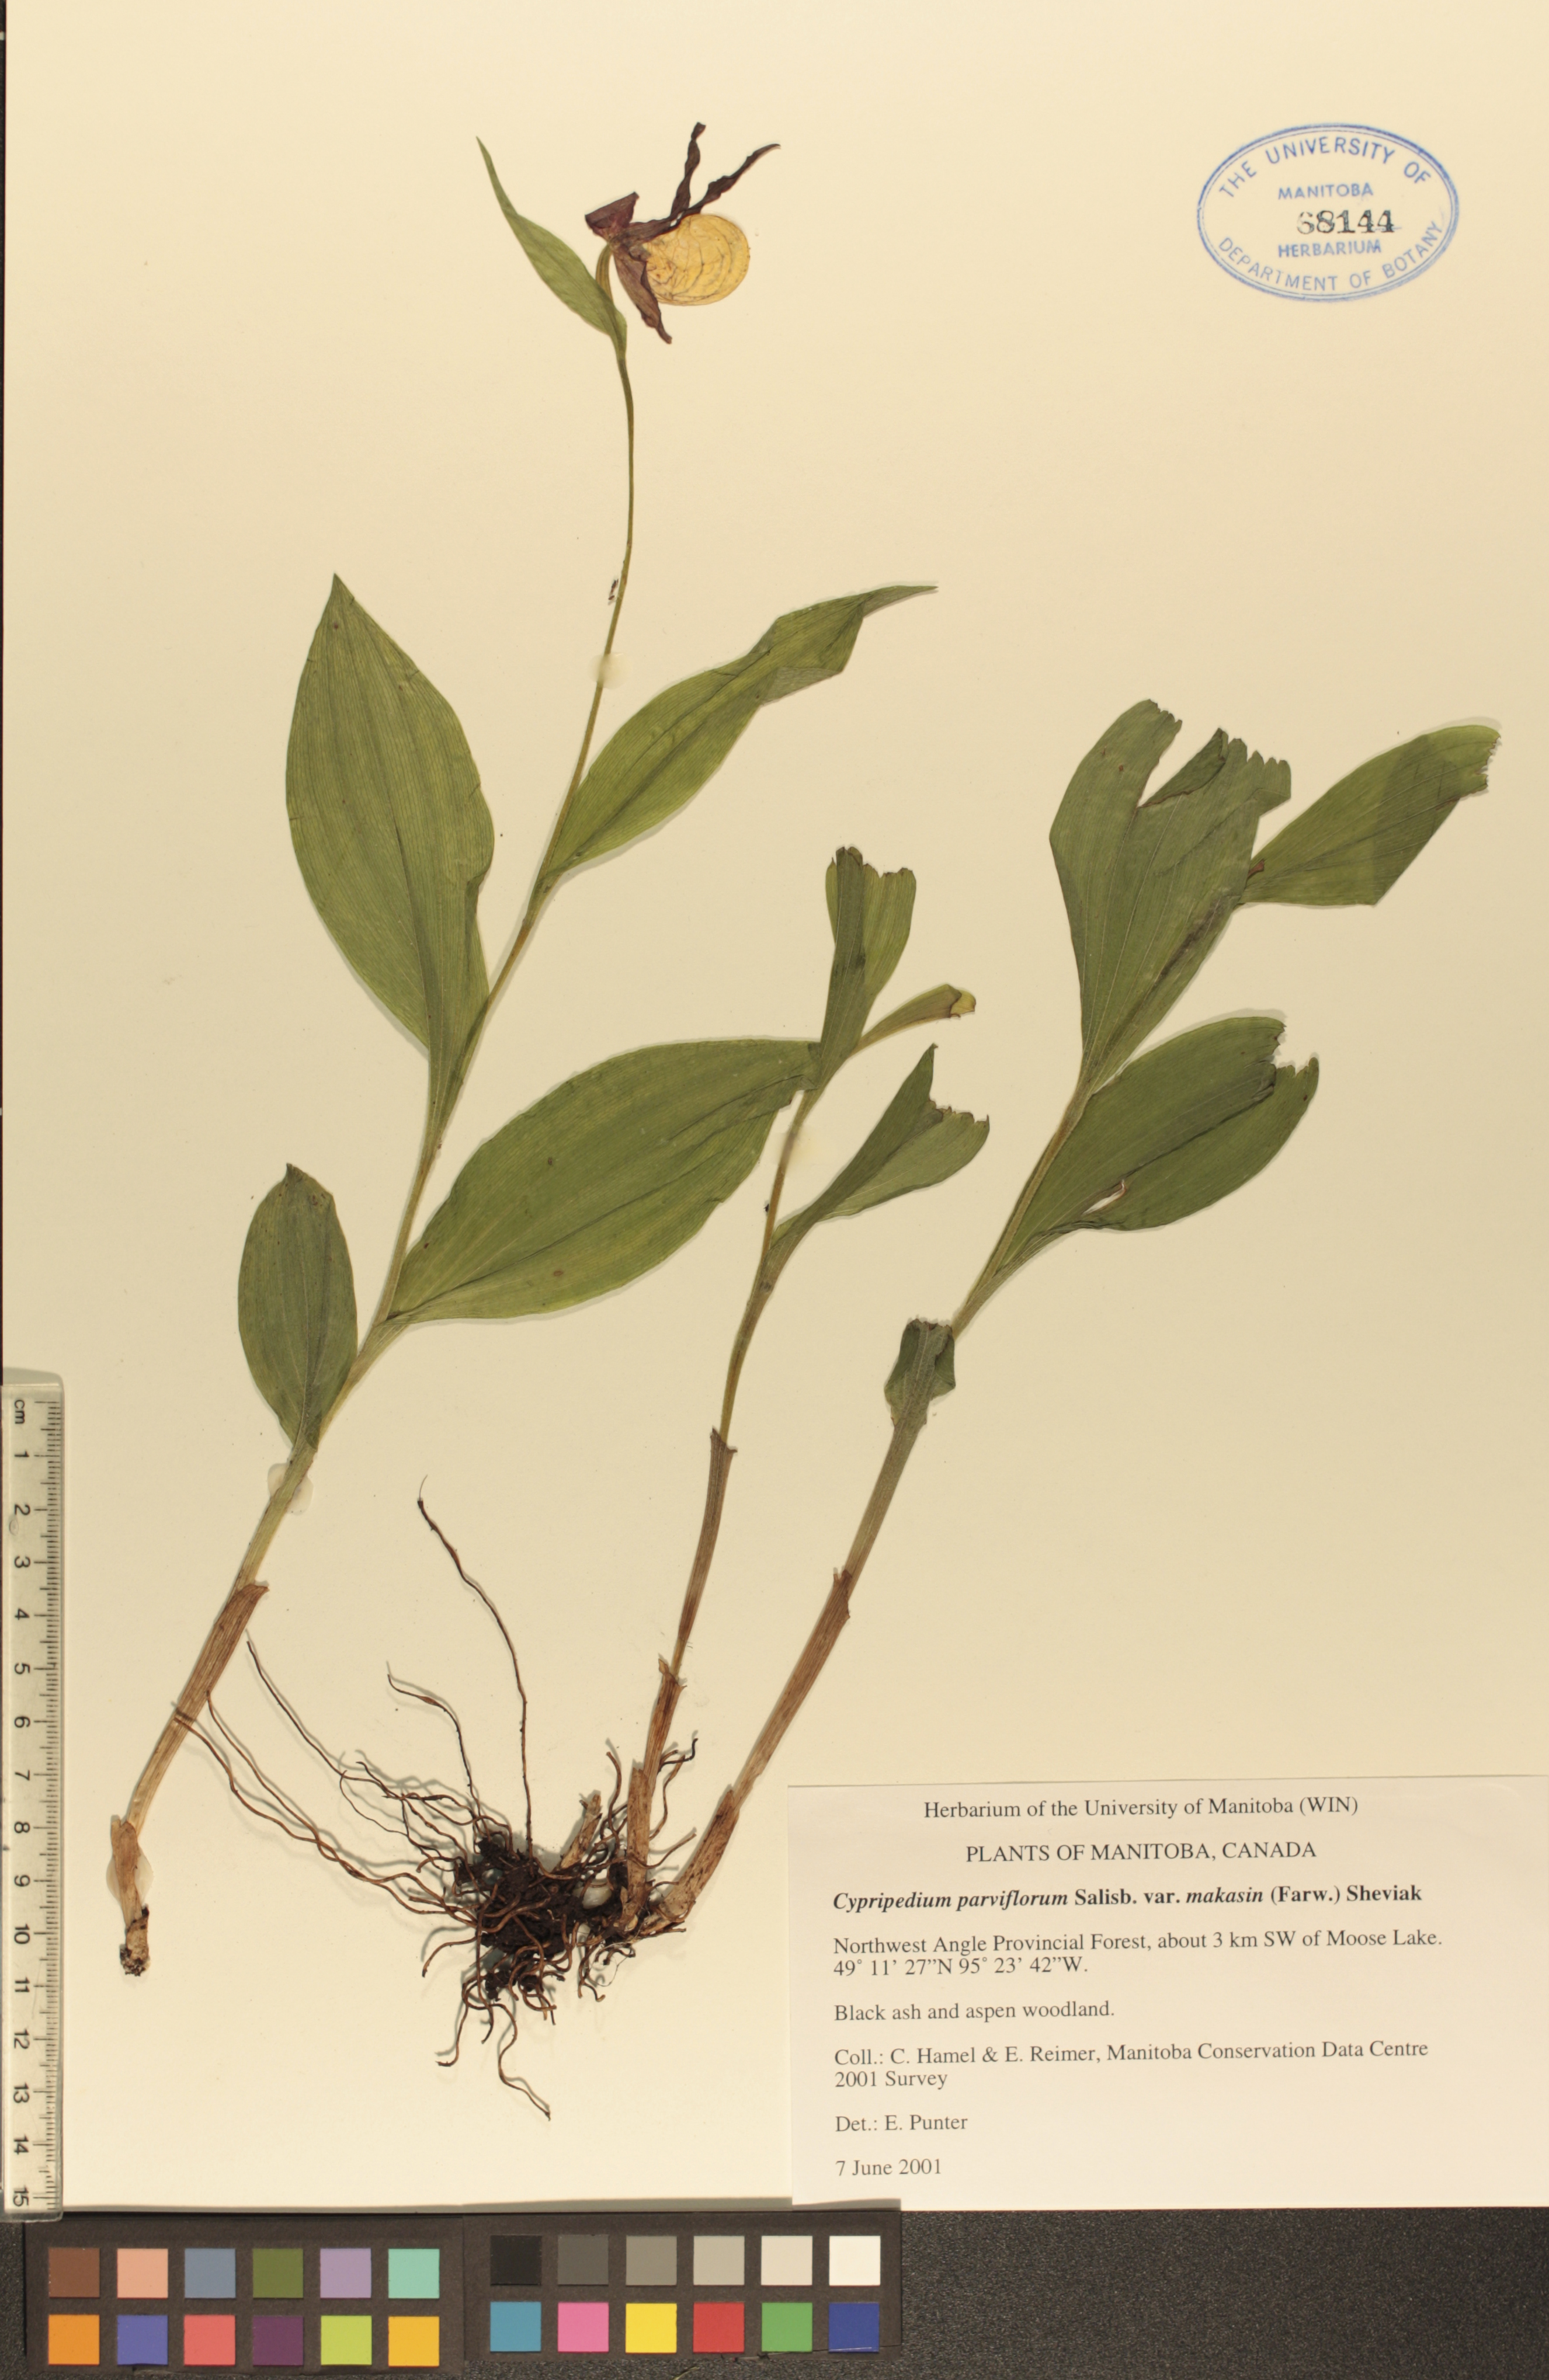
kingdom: Plantae
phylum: Tracheophyta
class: Liliopsida
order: Asparagales
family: Orchidaceae
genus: Cypripedium
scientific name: Cypripedium parviflorum
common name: American yellow lady's-slipper
